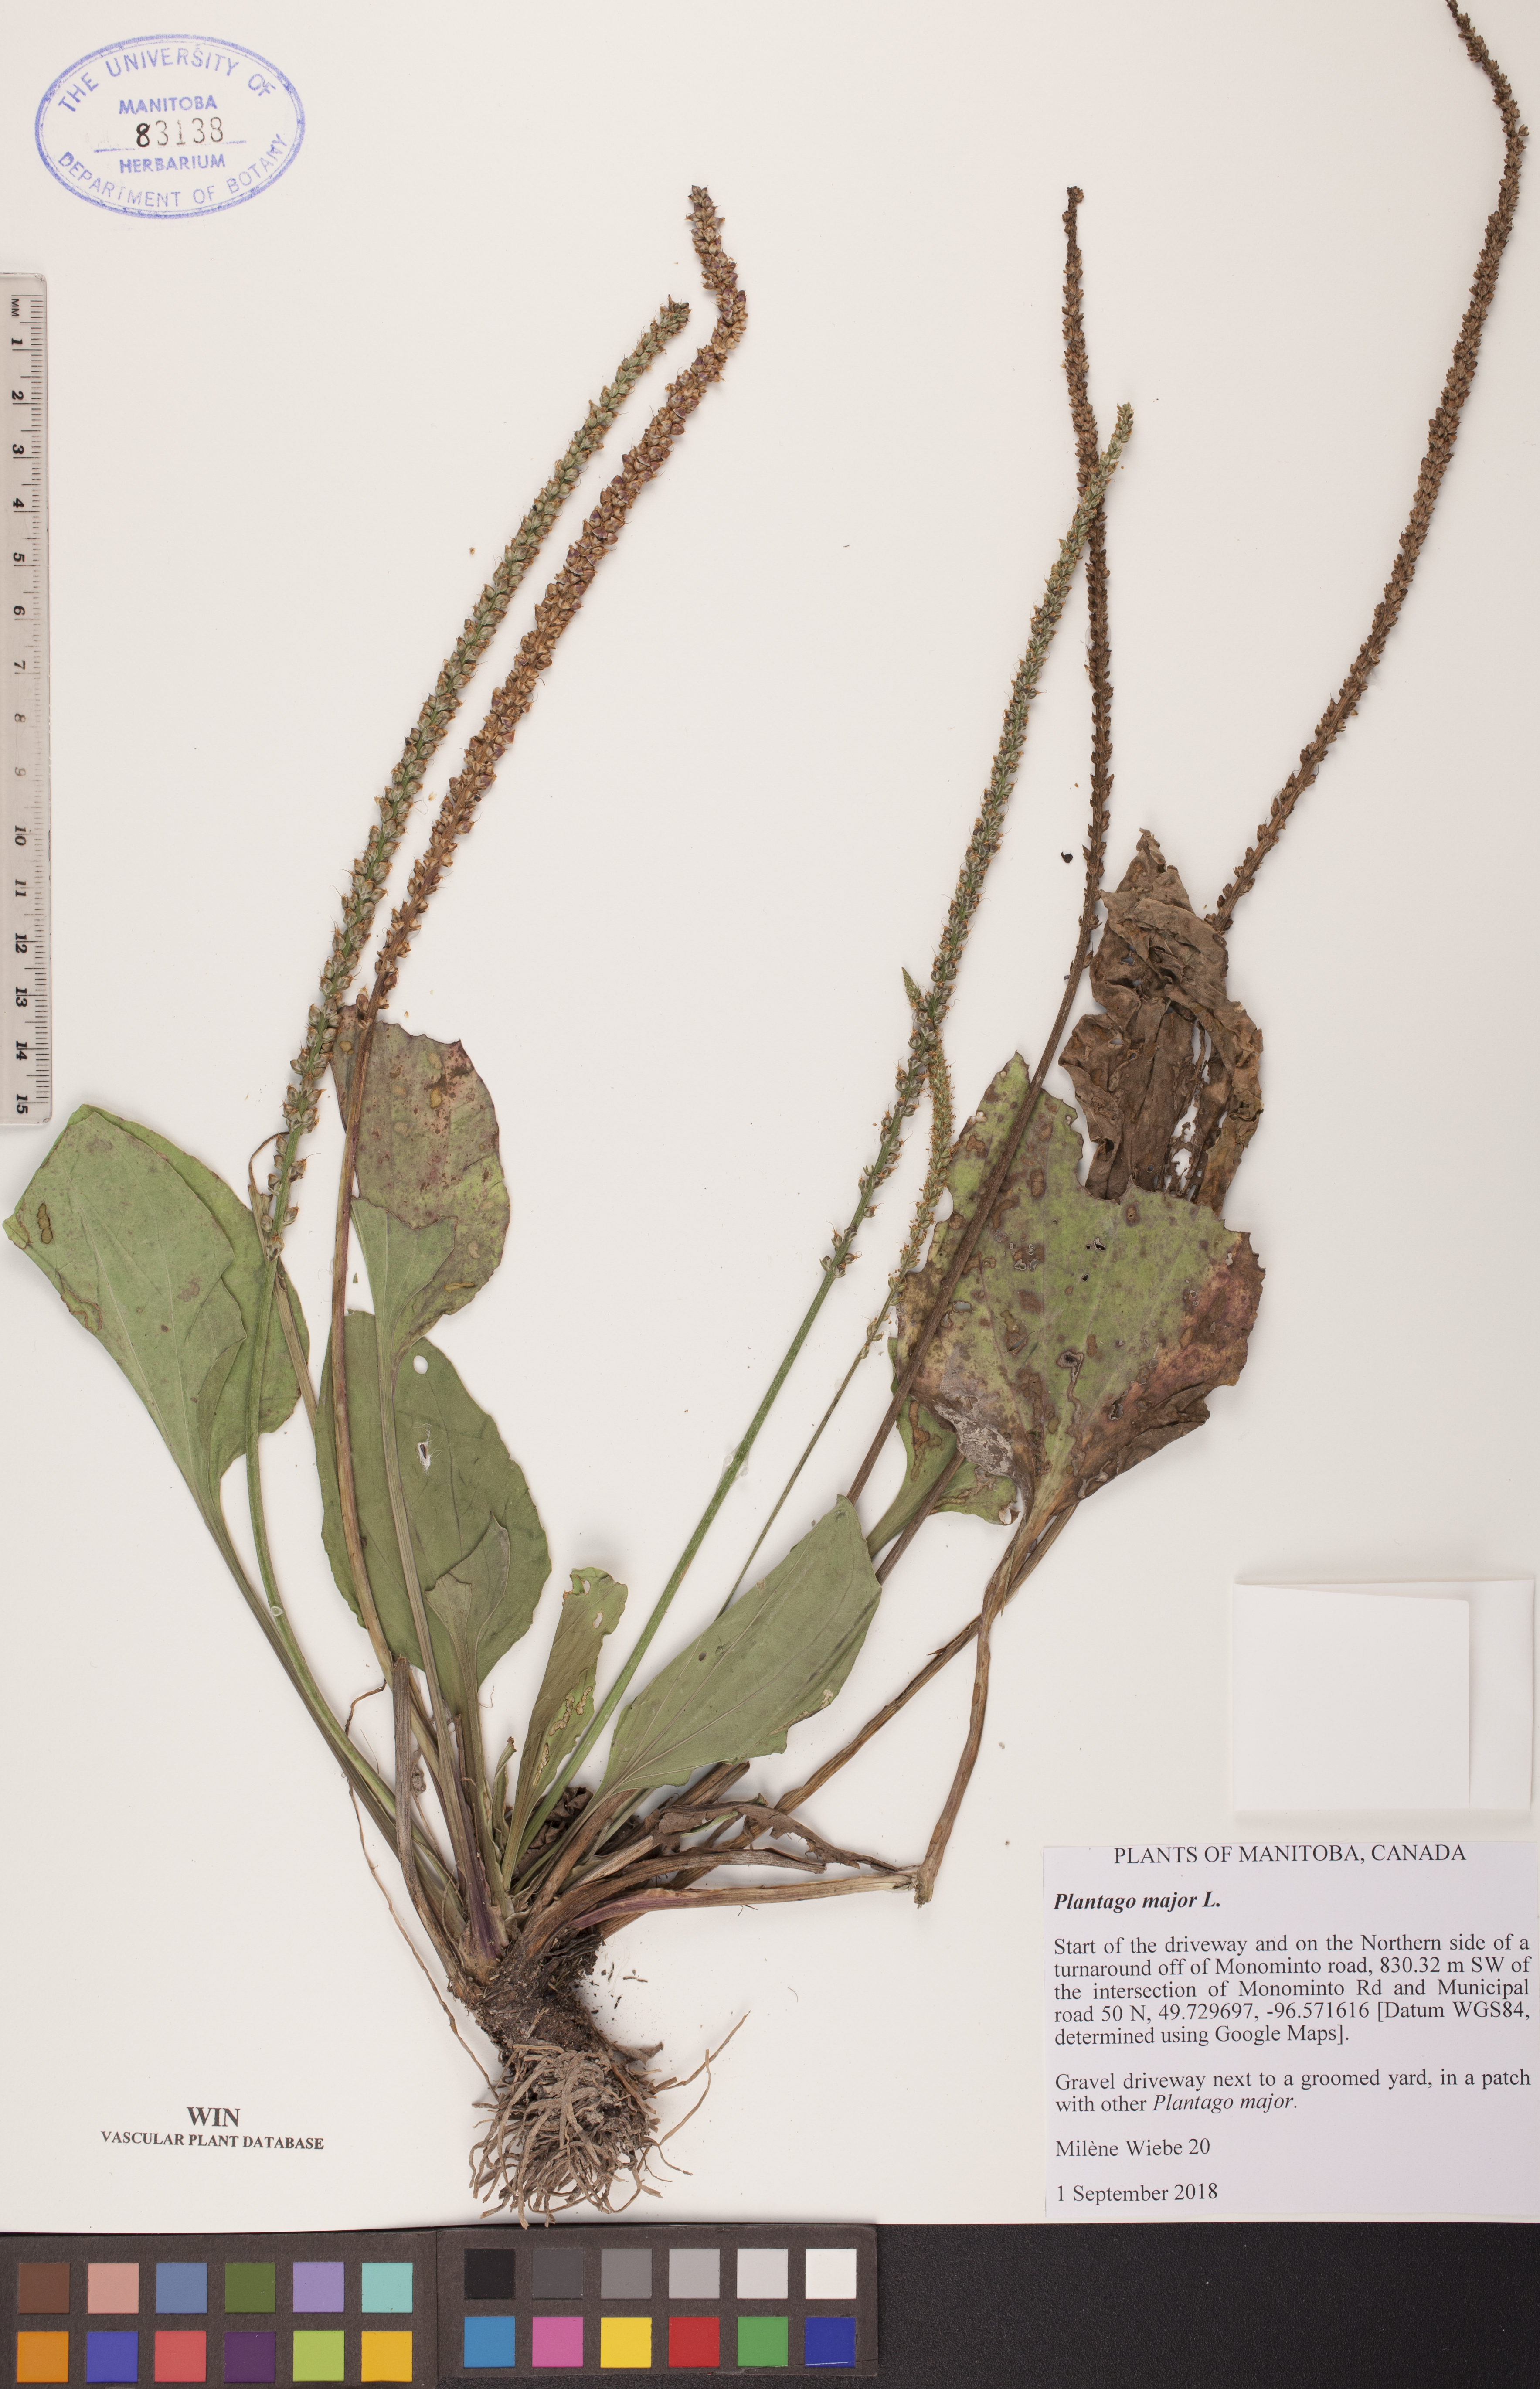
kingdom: Plantae
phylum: Tracheophyta
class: Magnoliopsida
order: Lamiales
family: Plantaginaceae
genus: Plantago
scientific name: Plantago major
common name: Common plantain
